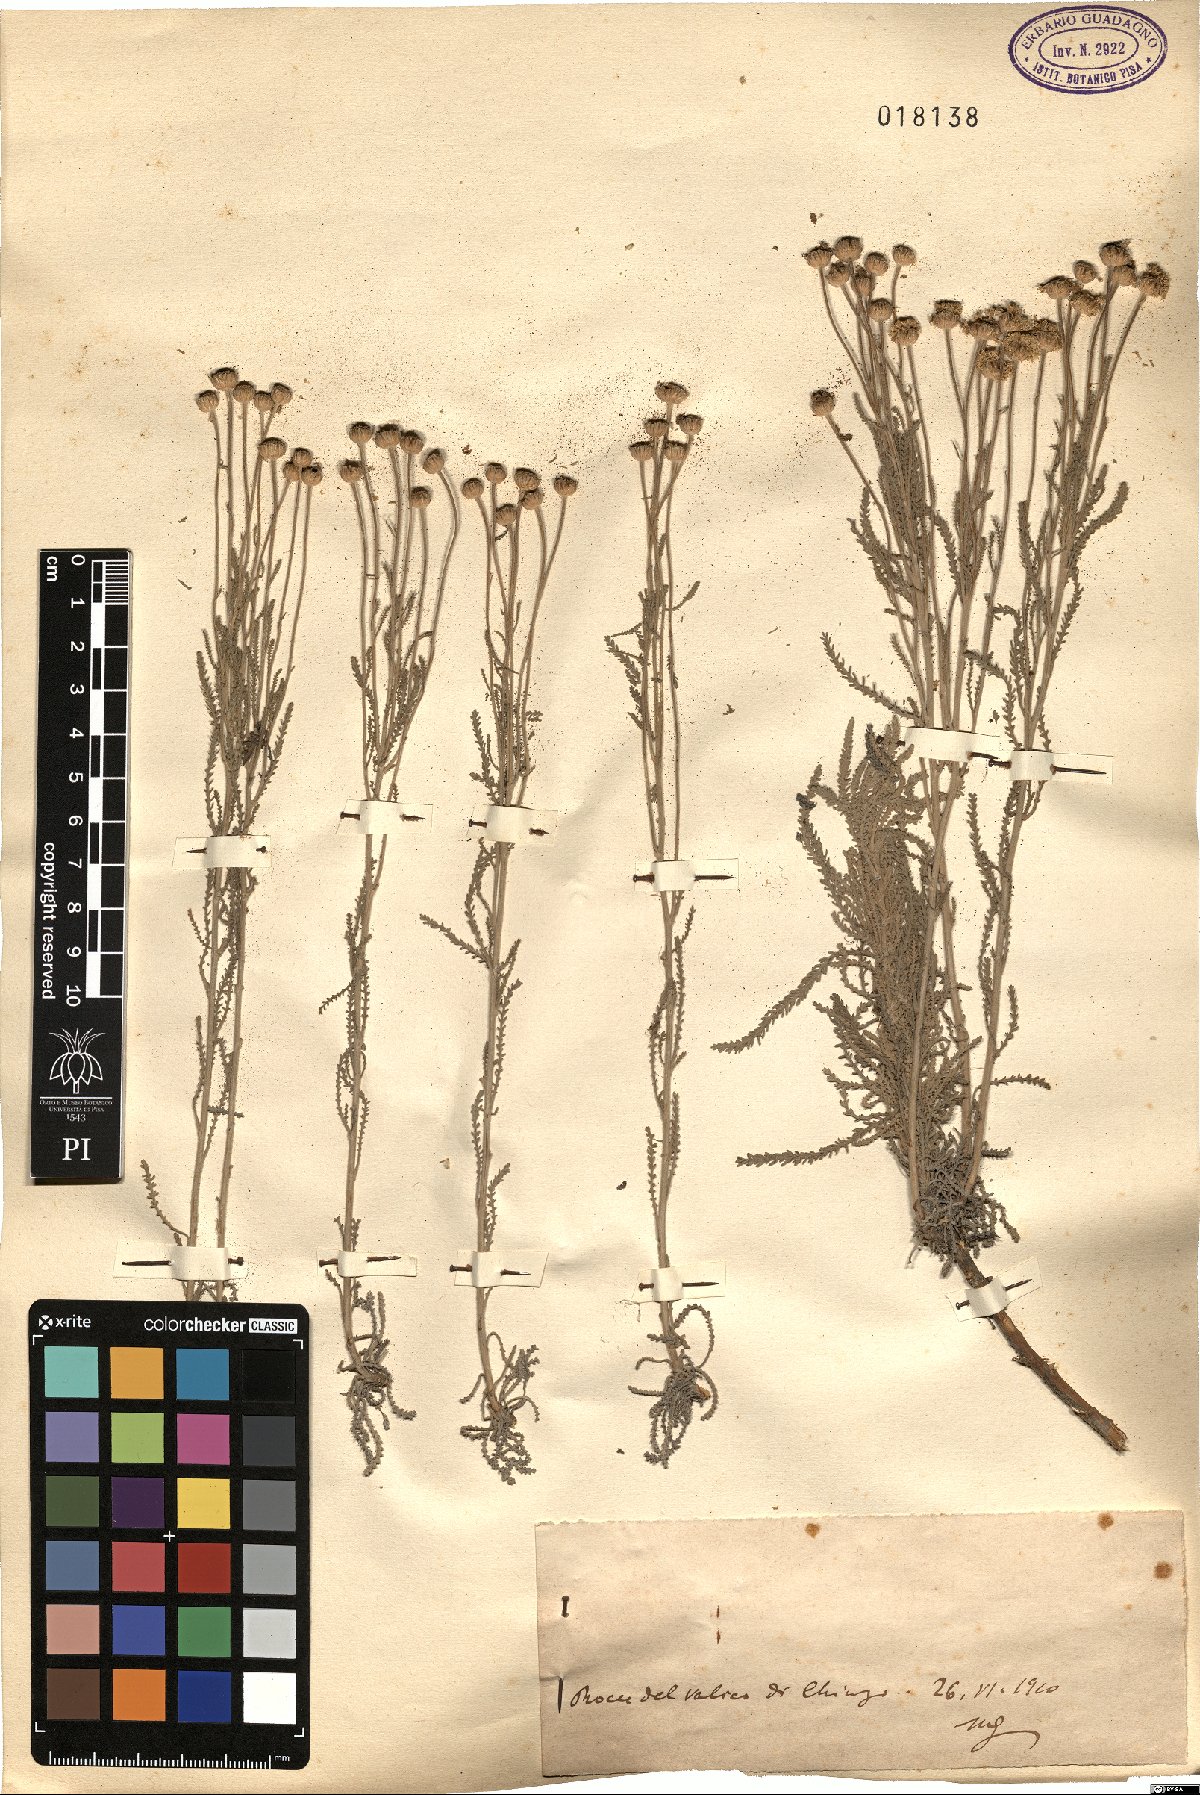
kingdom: Plantae
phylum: Tracheophyta
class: Magnoliopsida
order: Asterales
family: Asteraceae
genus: Santolina
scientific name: Santolina
